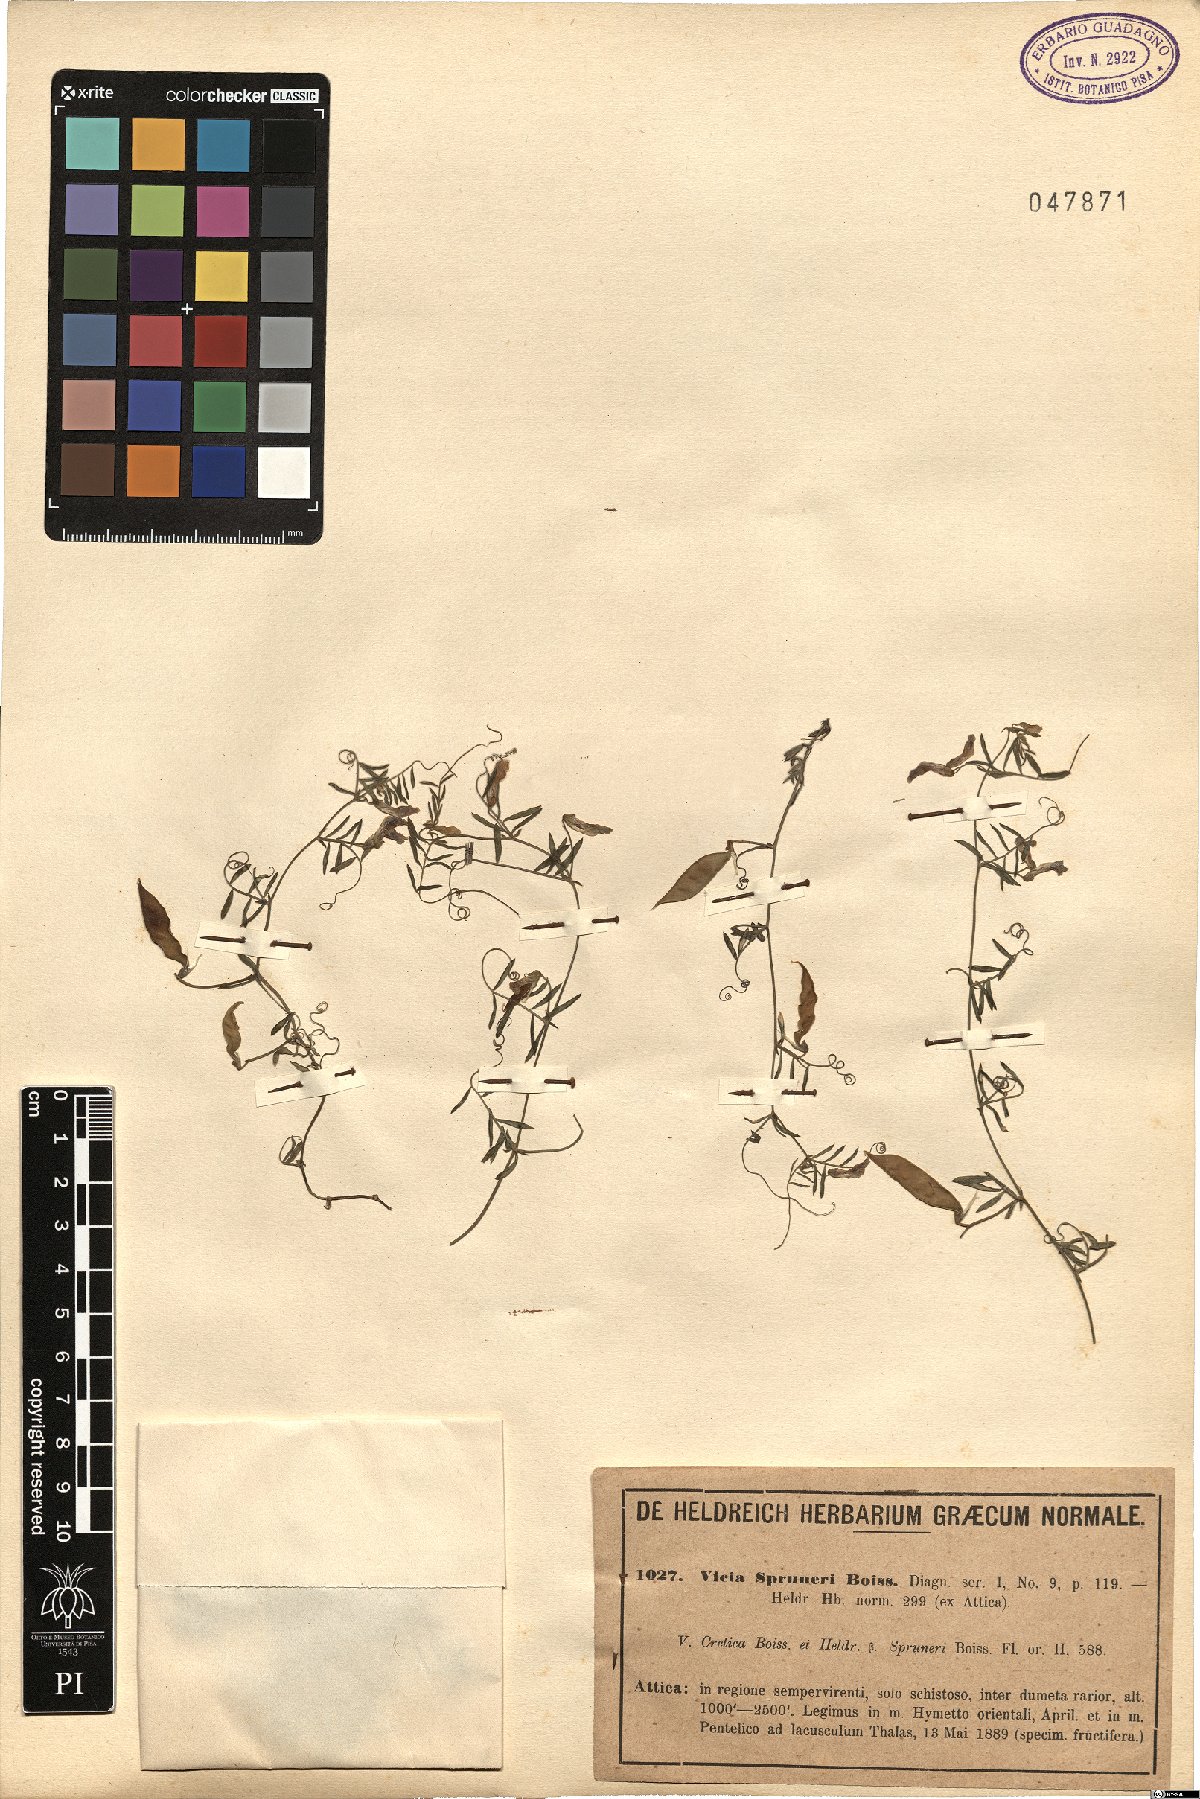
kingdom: Plantae
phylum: Tracheophyta
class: Magnoliopsida
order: Fabales
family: Fabaceae
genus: Vicia
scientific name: Vicia cretica
